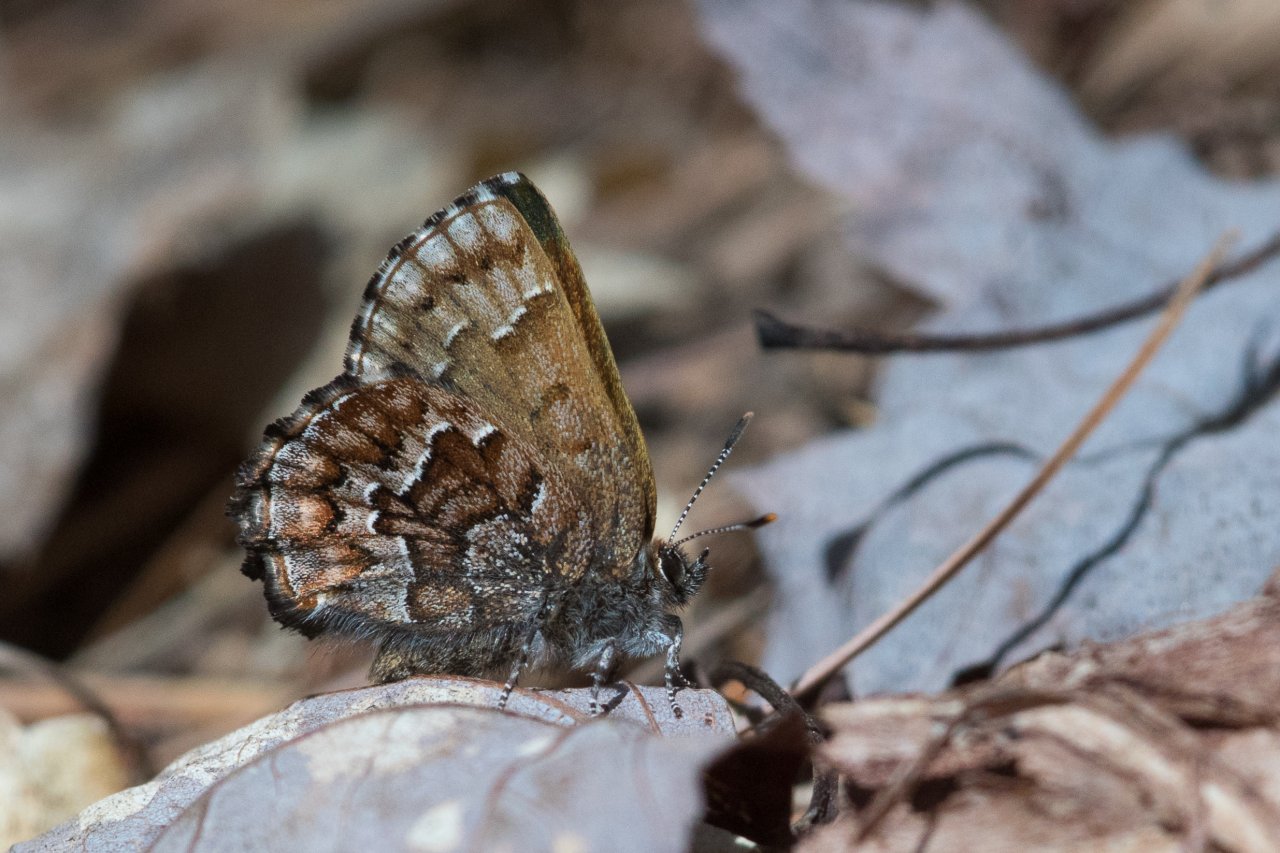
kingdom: Animalia
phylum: Arthropoda
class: Insecta
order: Lepidoptera
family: Lycaenidae
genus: Incisalia
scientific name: Incisalia niphon
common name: Eastern Pine Elfin
